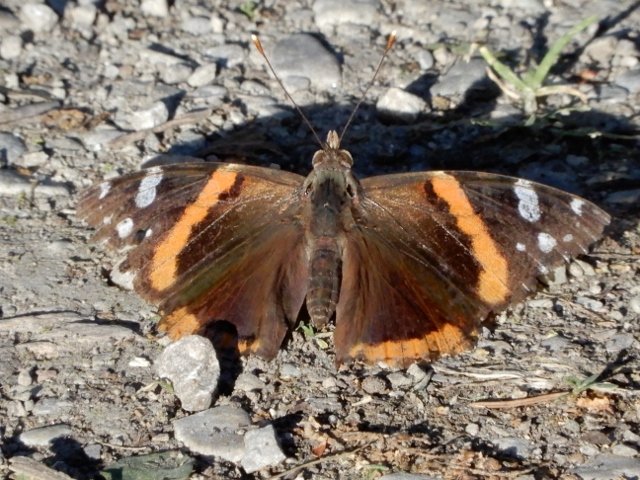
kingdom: Animalia
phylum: Arthropoda
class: Insecta
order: Lepidoptera
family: Nymphalidae
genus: Vanessa
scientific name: Vanessa atalanta
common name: Red Admiral
